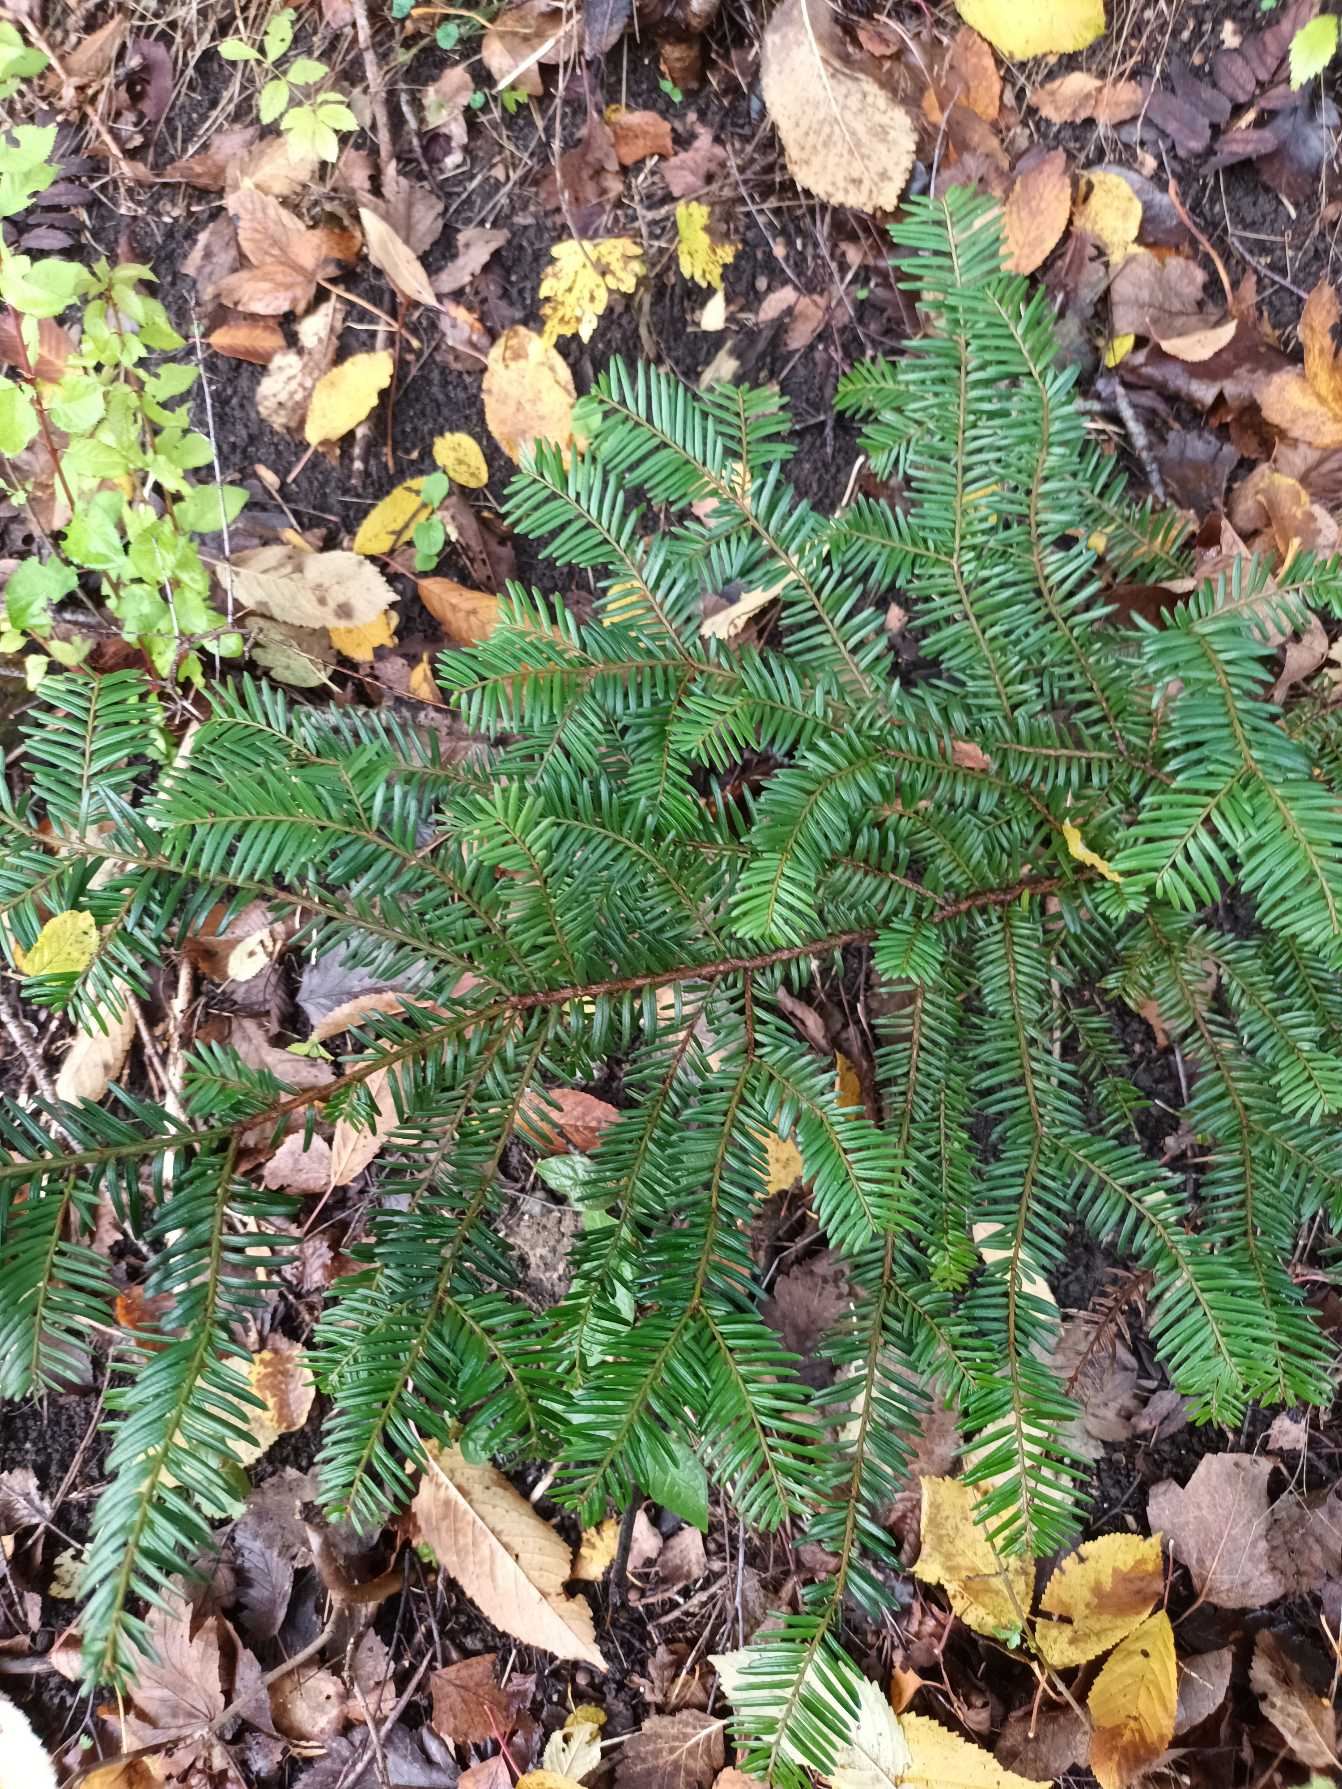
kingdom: Plantae
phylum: Tracheophyta
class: Pinopsida
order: Pinales
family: Taxaceae
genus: Taxus
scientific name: Taxus baccata
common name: Almindelig taks
